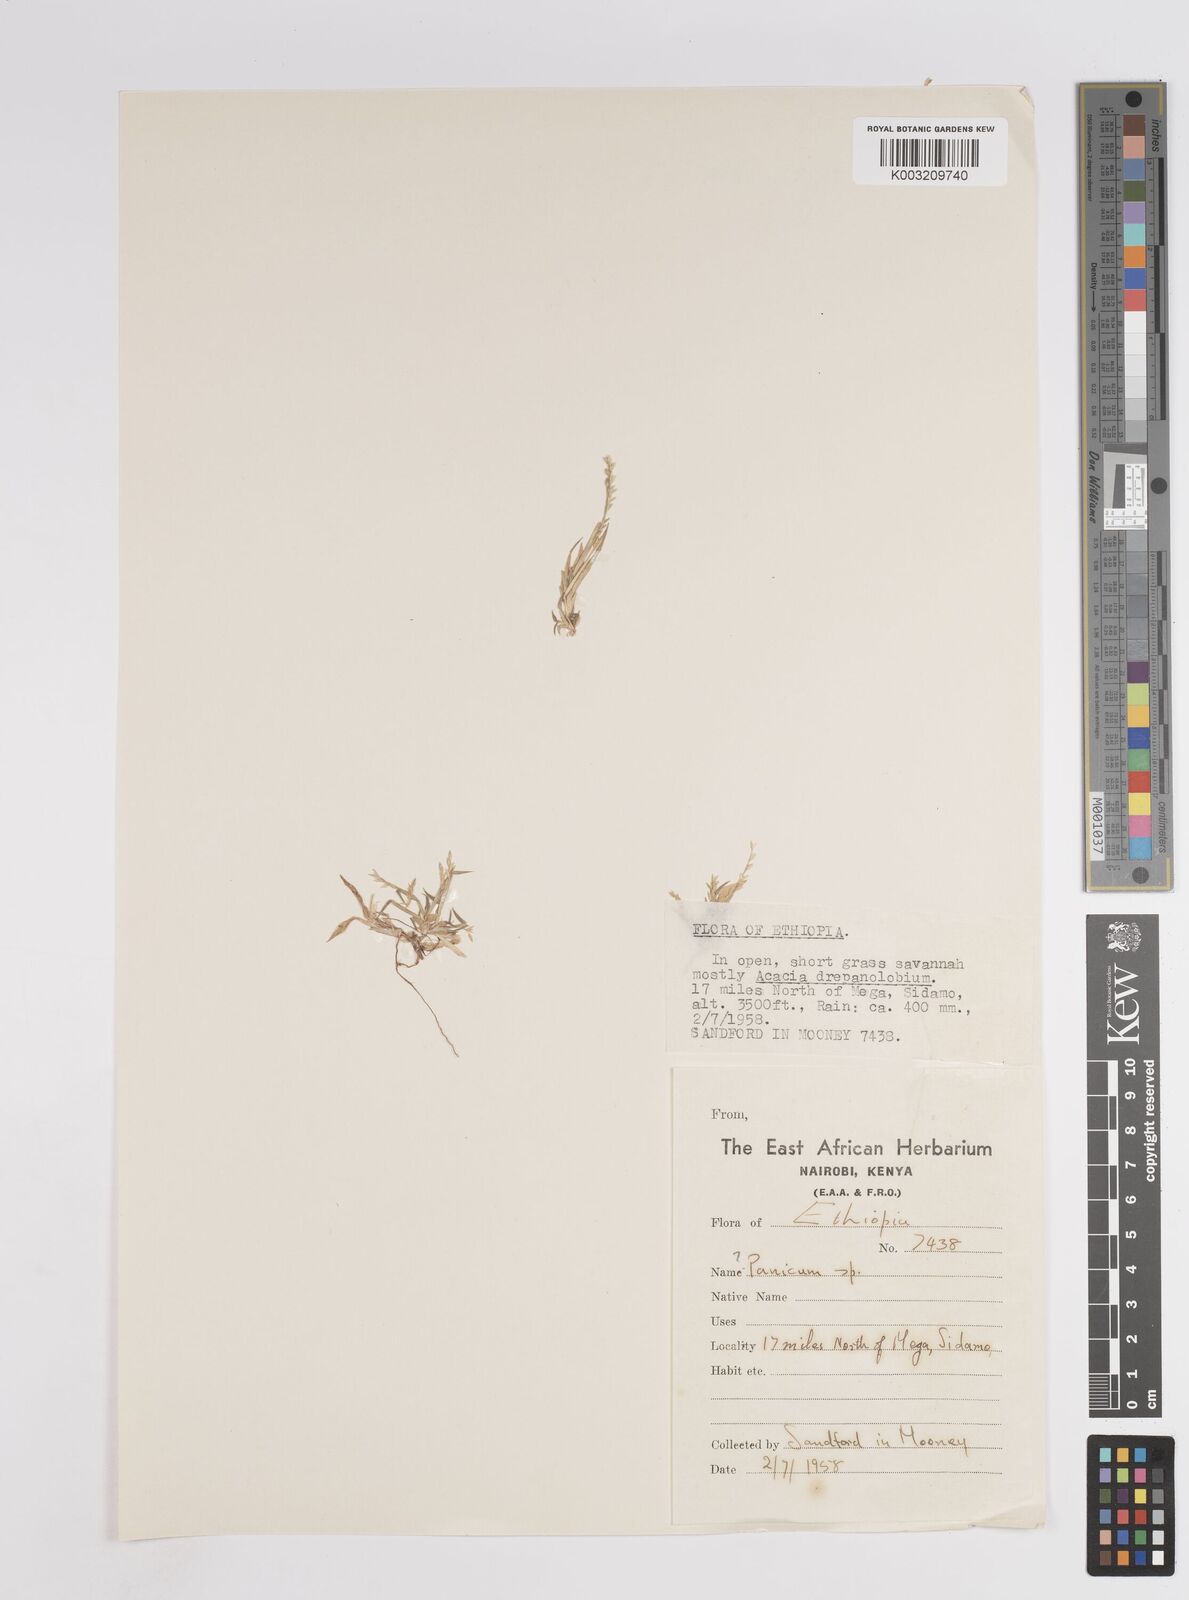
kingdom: Plantae
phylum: Tracheophyta
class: Liliopsida
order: Poales
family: Poaceae
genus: Panicum
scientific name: Panicum
